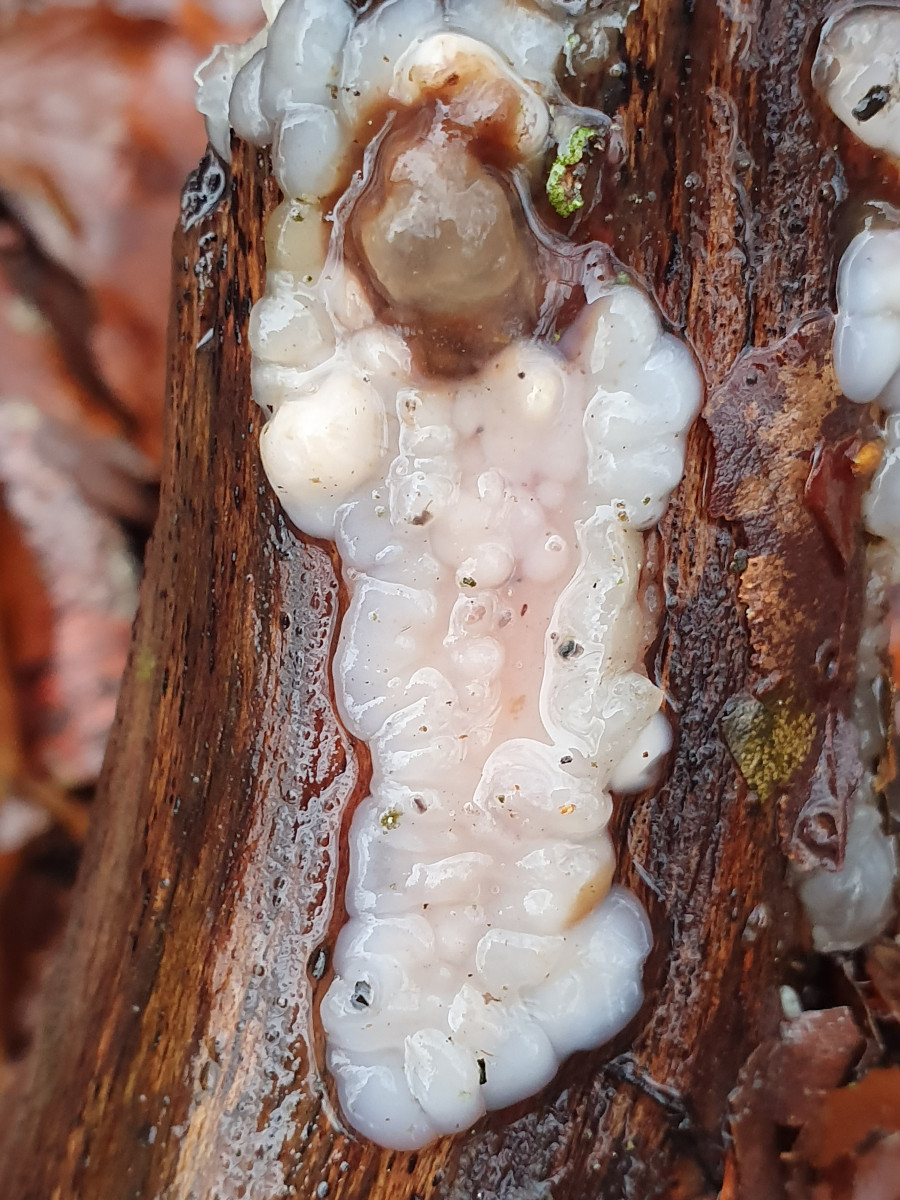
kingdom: Fungi
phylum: Basidiomycota
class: Agaricomycetes
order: Auriculariales
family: Auriculariaceae
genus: Exidia
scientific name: Exidia thuretiana
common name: hvidlig bævretop
